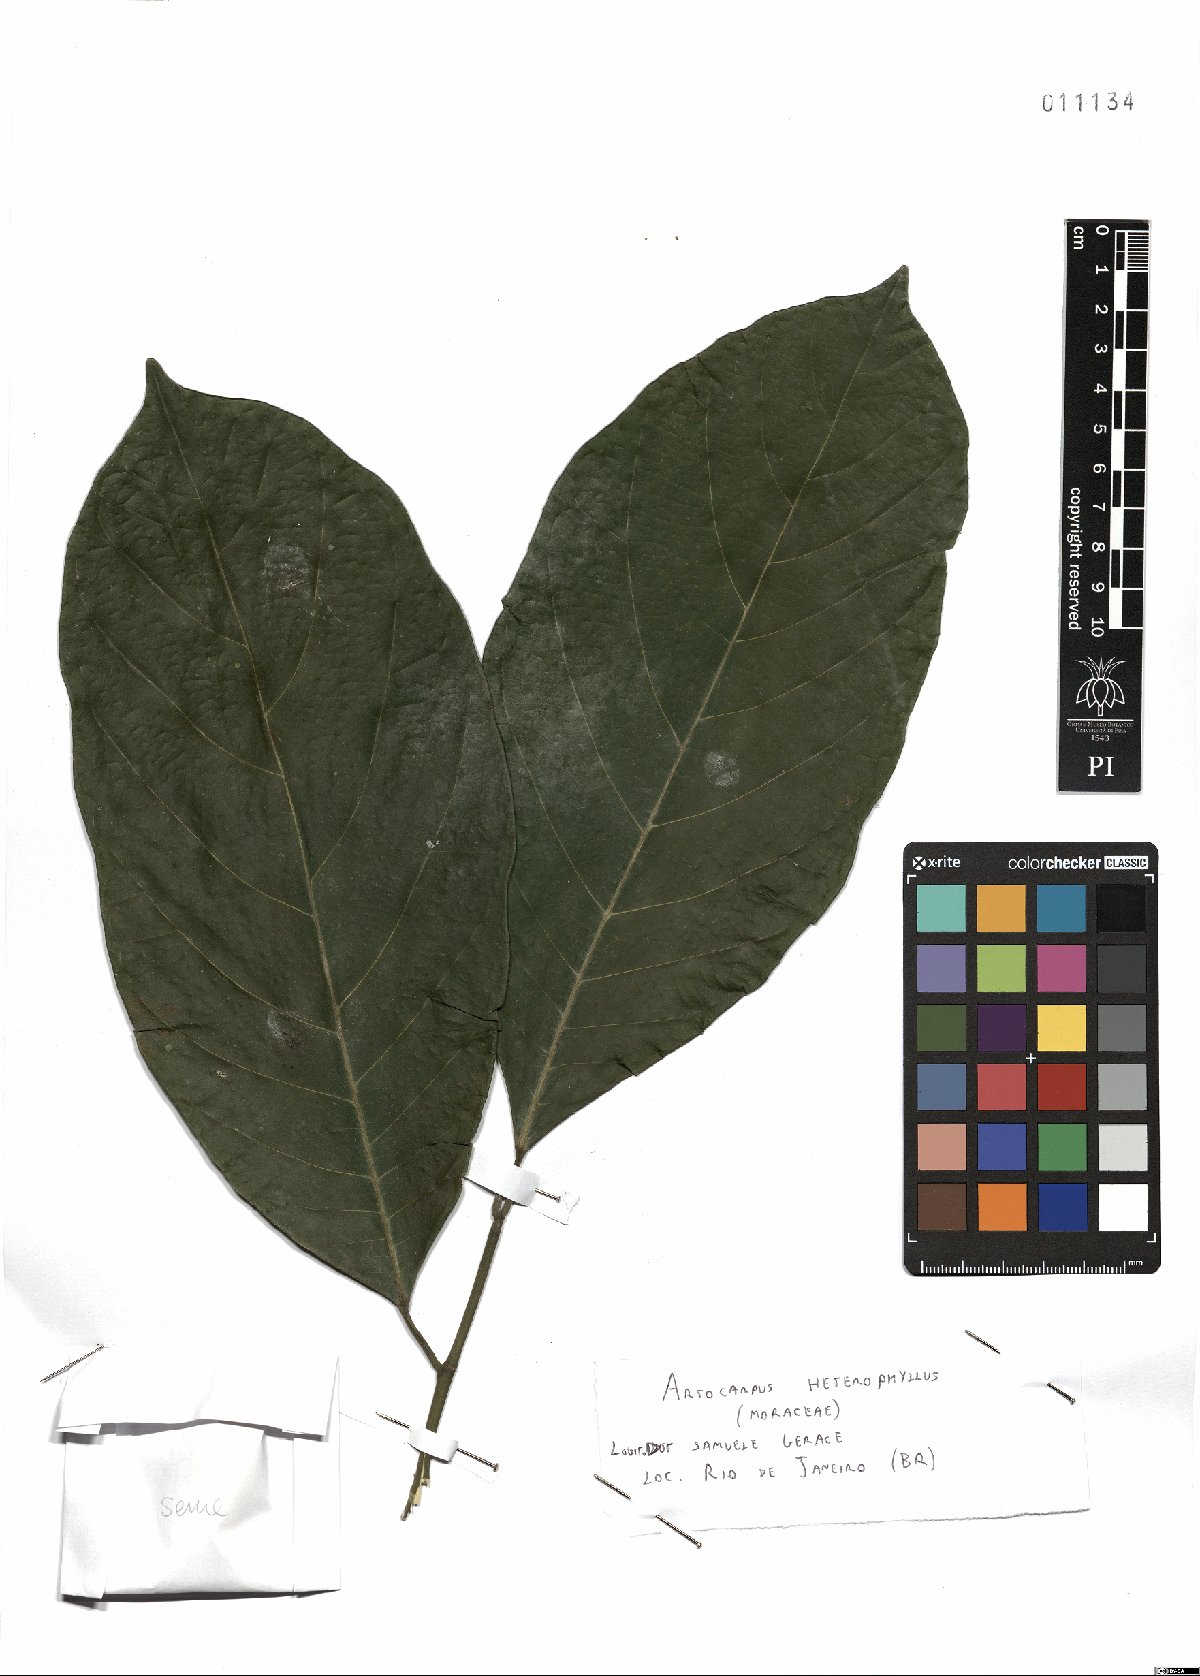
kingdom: Plantae
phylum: Tracheophyta
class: Magnoliopsida
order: Rosales
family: Moraceae
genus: Artocarpus
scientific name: Artocarpus heterophyllus
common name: Jackfruit
